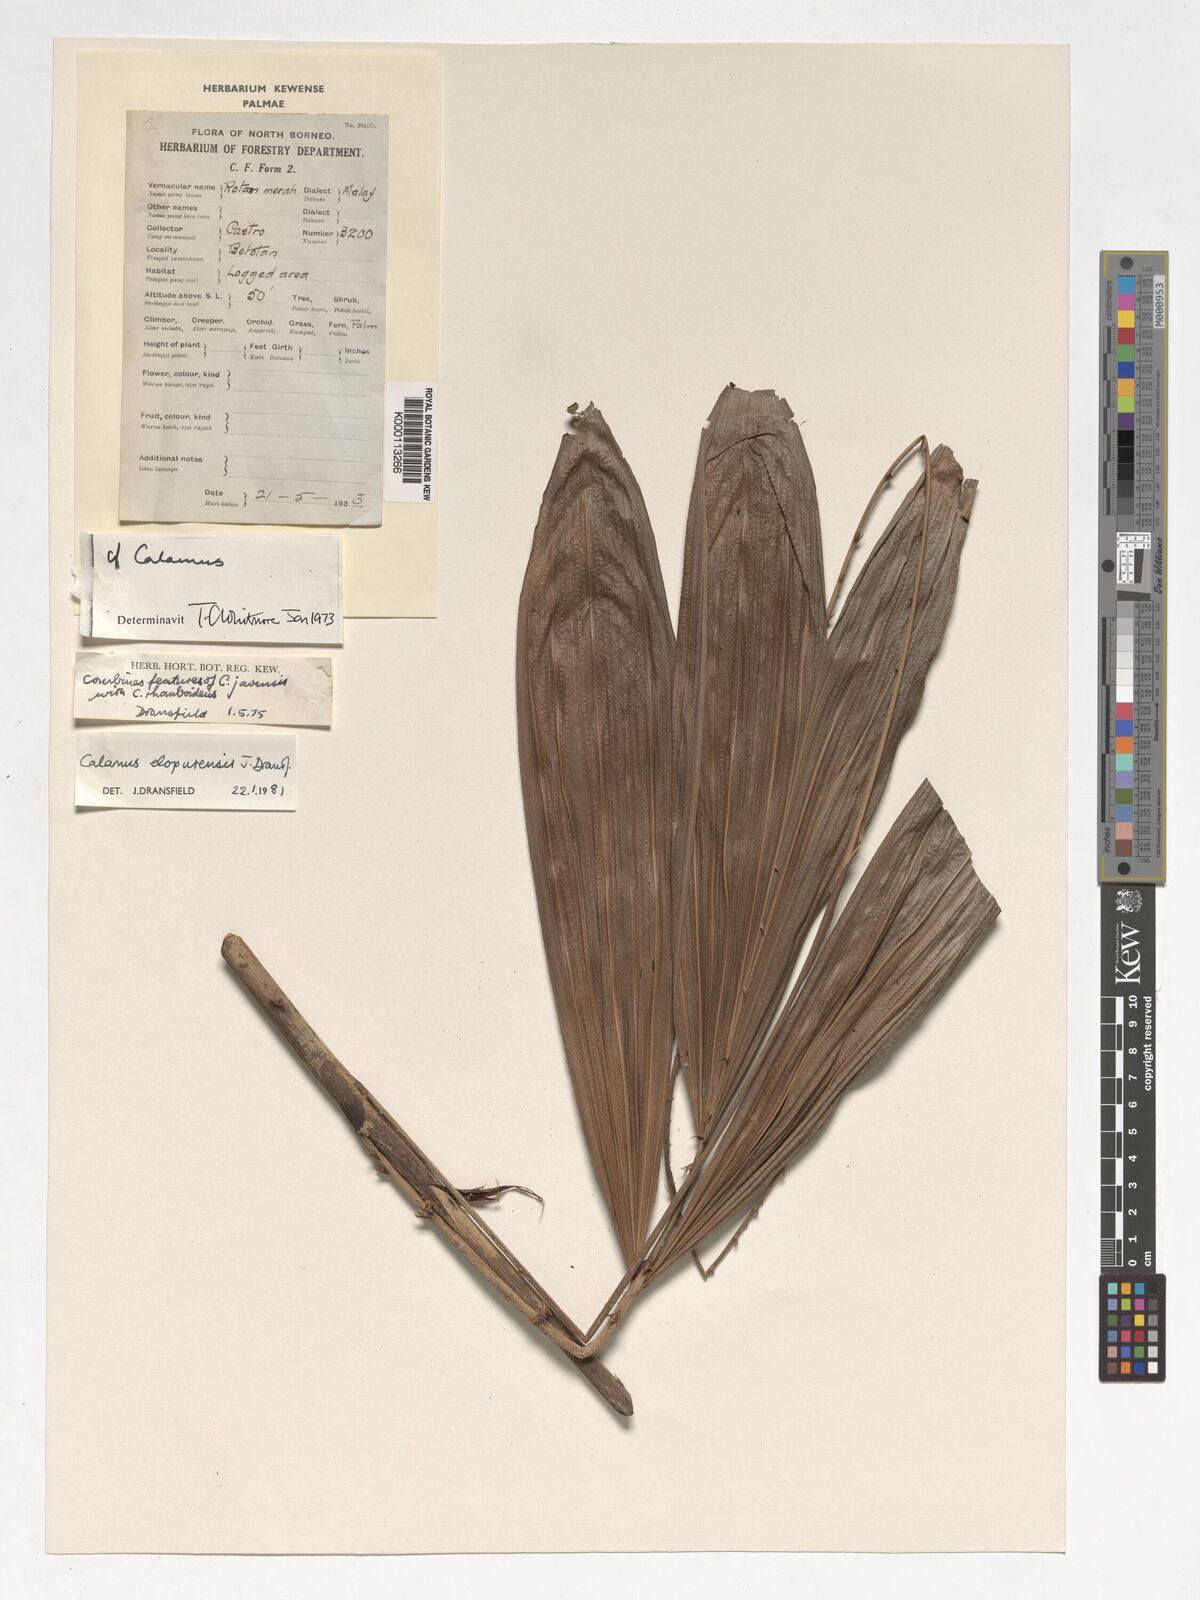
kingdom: Plantae
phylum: Tracheophyta
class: Liliopsida
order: Arecales
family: Arecaceae
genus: Calamus
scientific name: Calamus javensis
